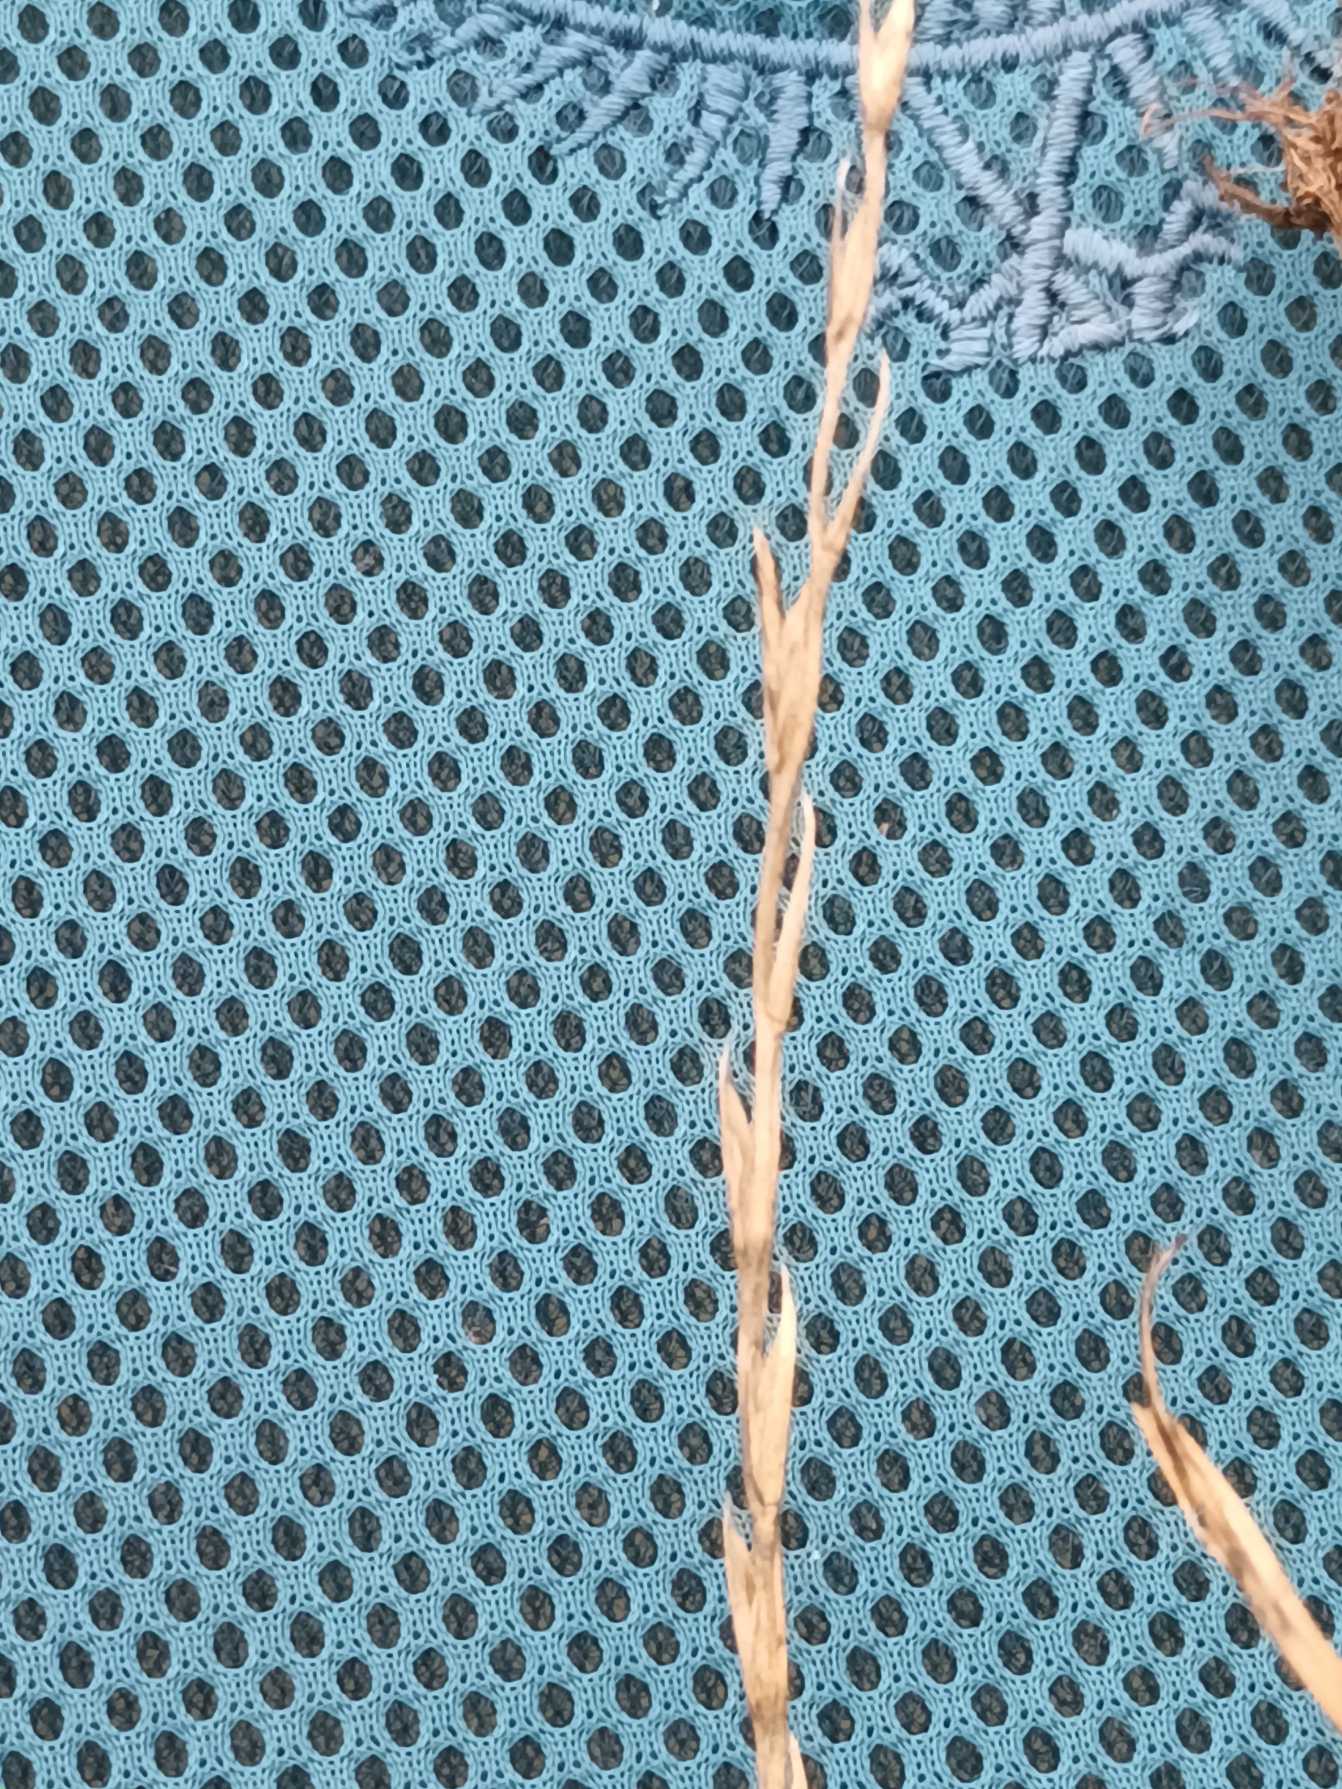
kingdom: Plantae
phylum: Tracheophyta
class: Liliopsida
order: Poales
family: Poaceae
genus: Lolium
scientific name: Lolium perenne
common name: Almindelig rajgræs
